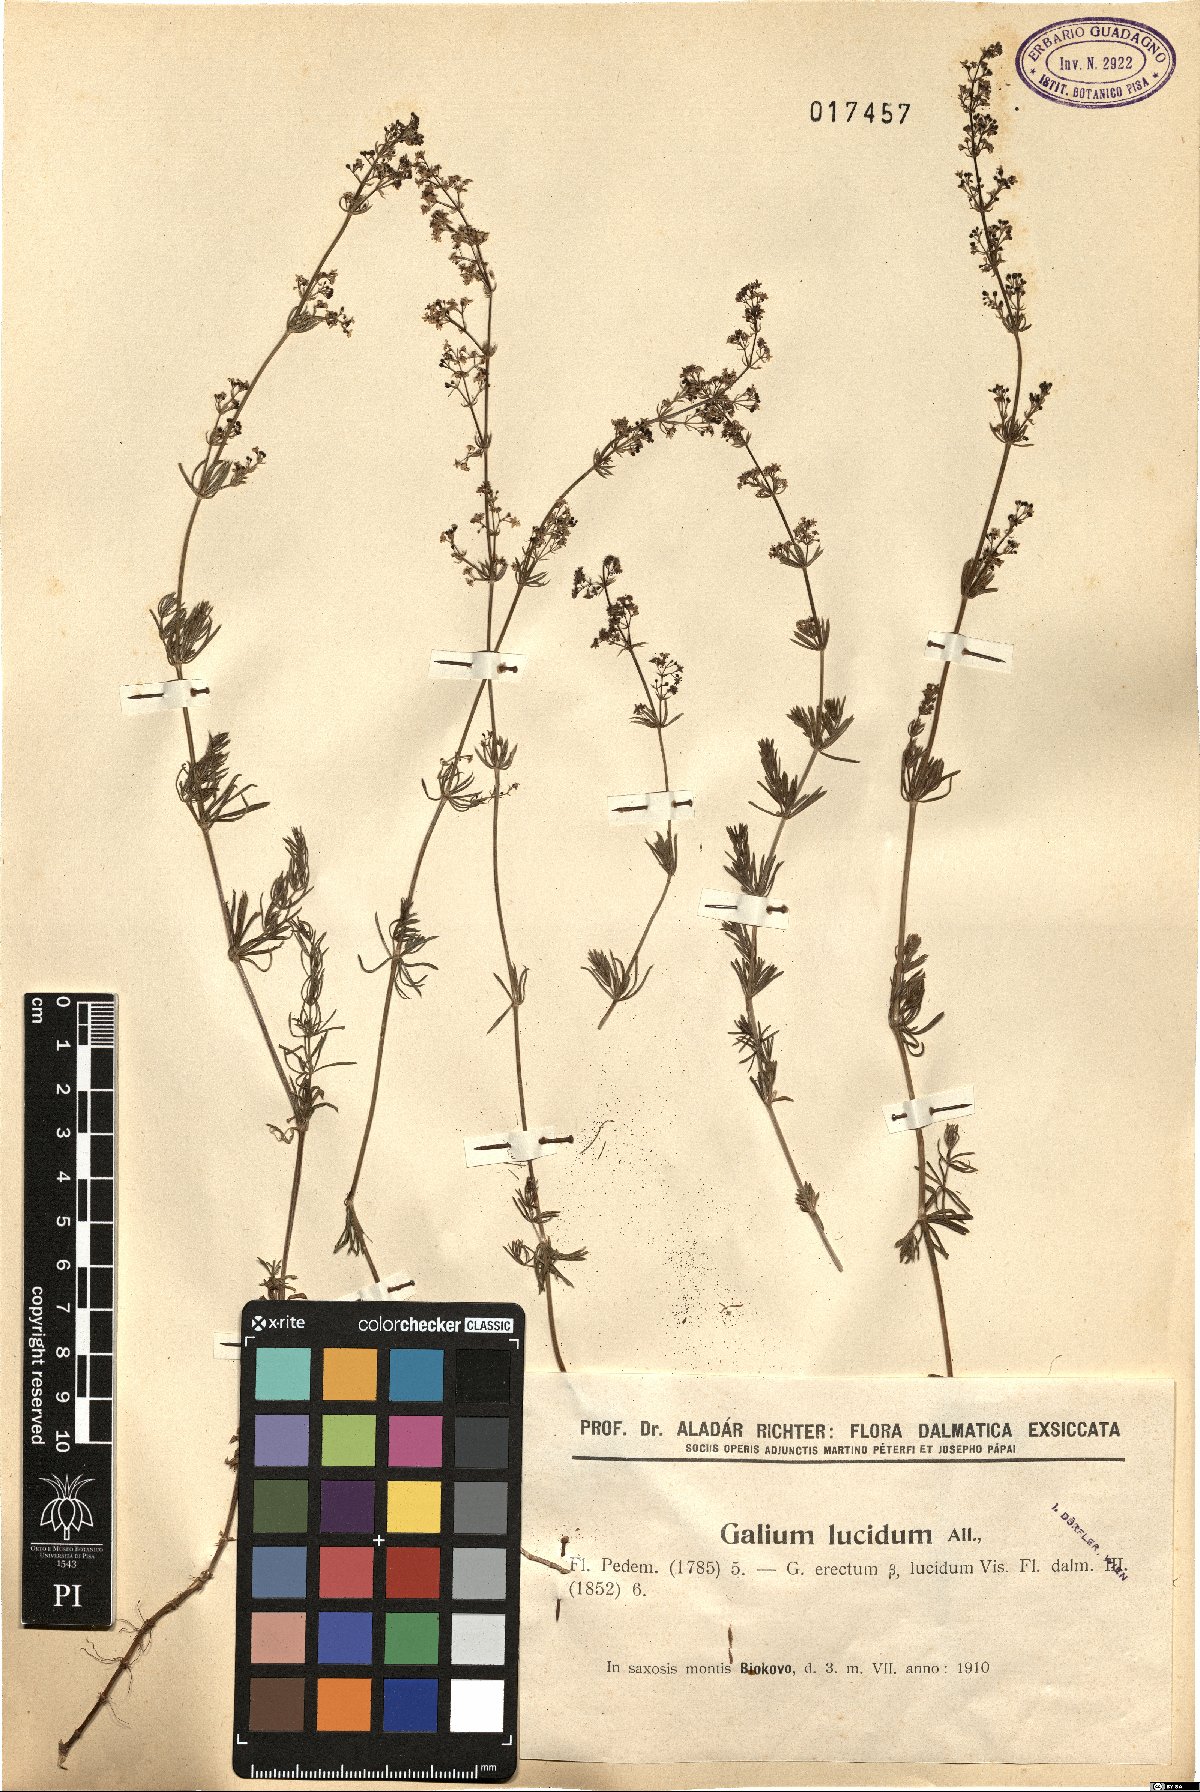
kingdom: Plantae
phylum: Tracheophyta
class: Magnoliopsida
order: Gentianales
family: Rubiaceae
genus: Galium
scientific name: Galium lucidum
